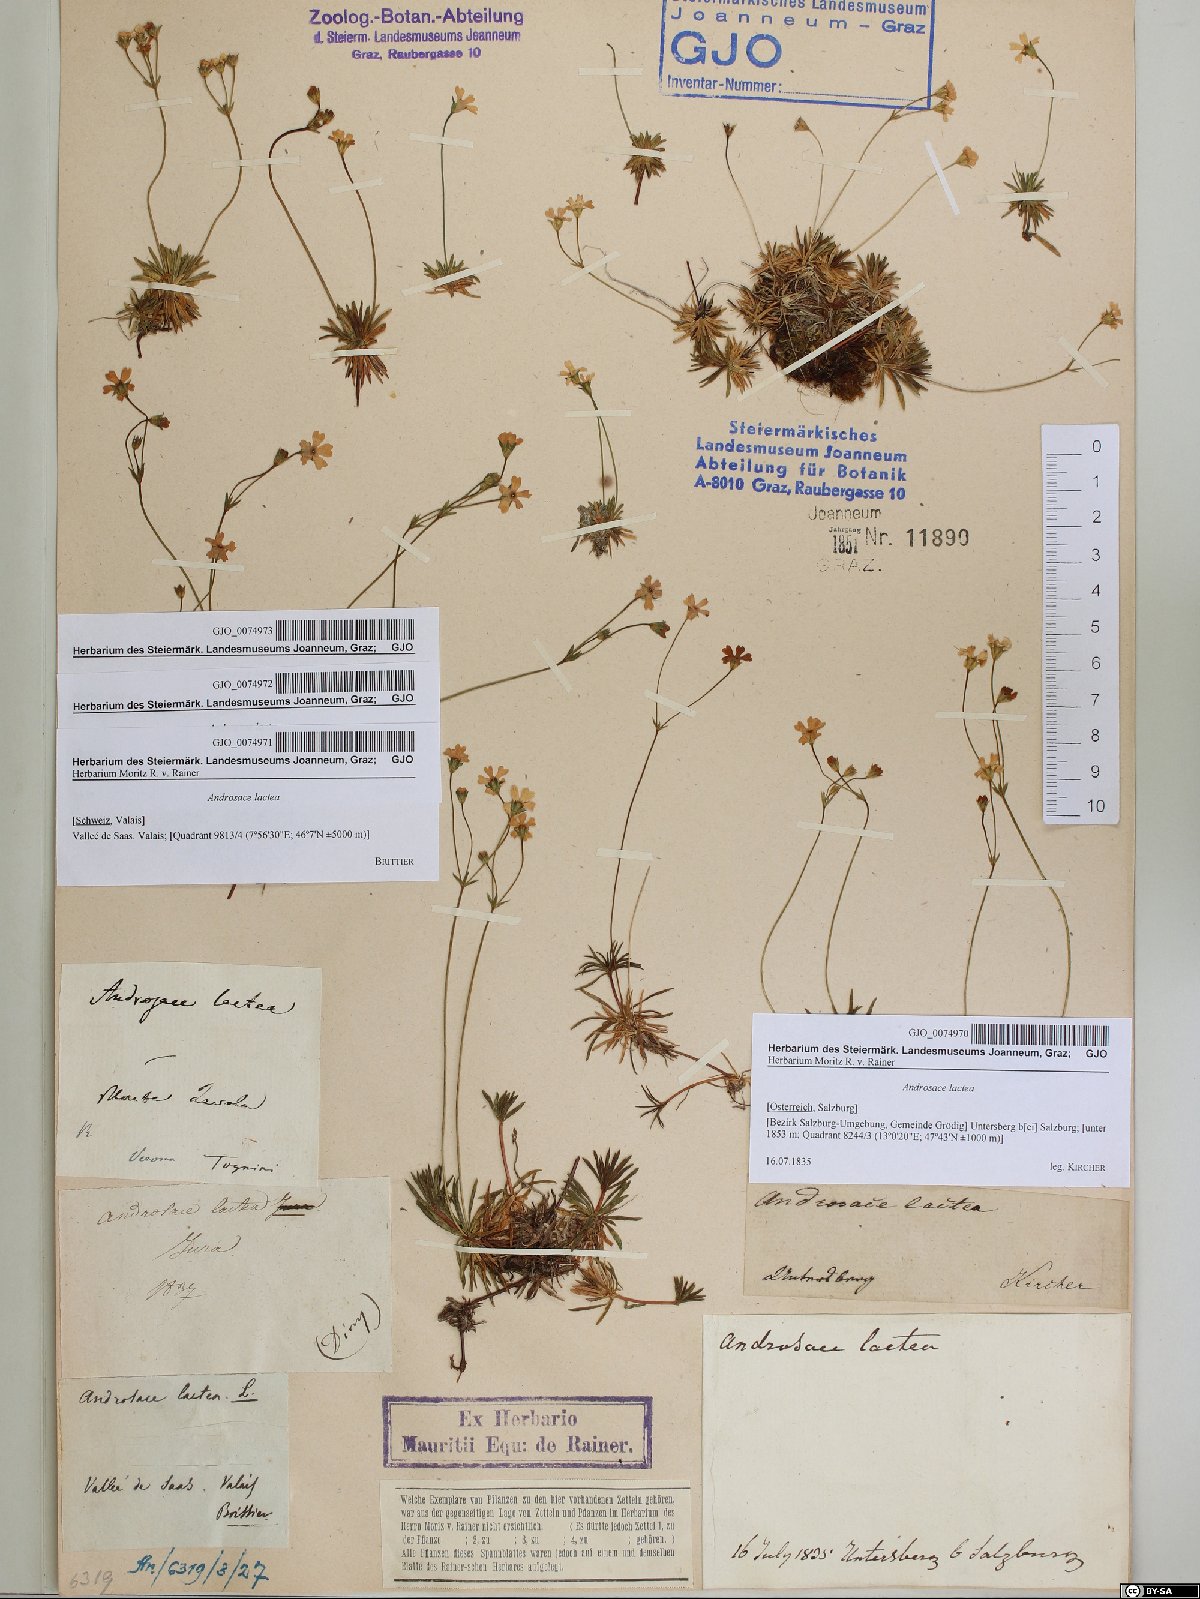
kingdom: Plantae
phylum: Tracheophyta
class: Magnoliopsida
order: Ericales
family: Primulaceae
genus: Androsace
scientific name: Androsace lactea
